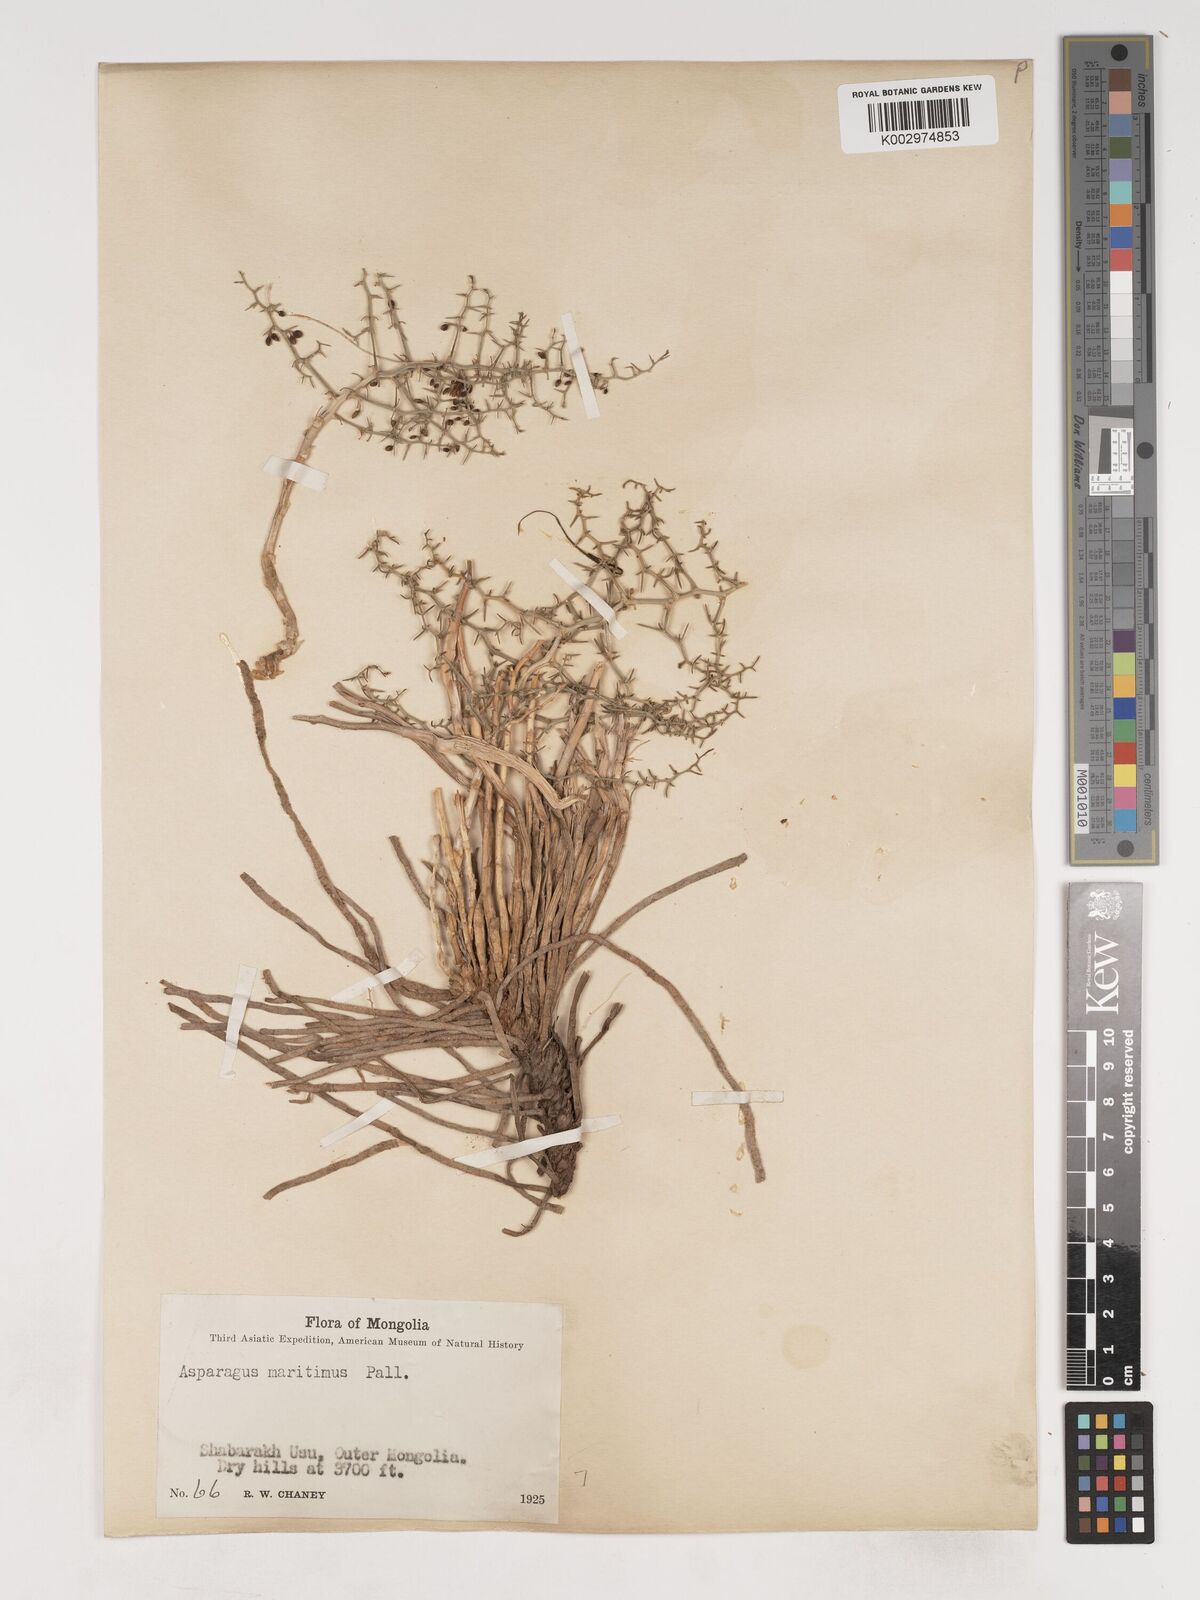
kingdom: Plantae
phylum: Tracheophyta
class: Liliopsida
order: Asparagales
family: Asparagaceae
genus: Asparagus
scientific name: Asparagus trichophyllus
